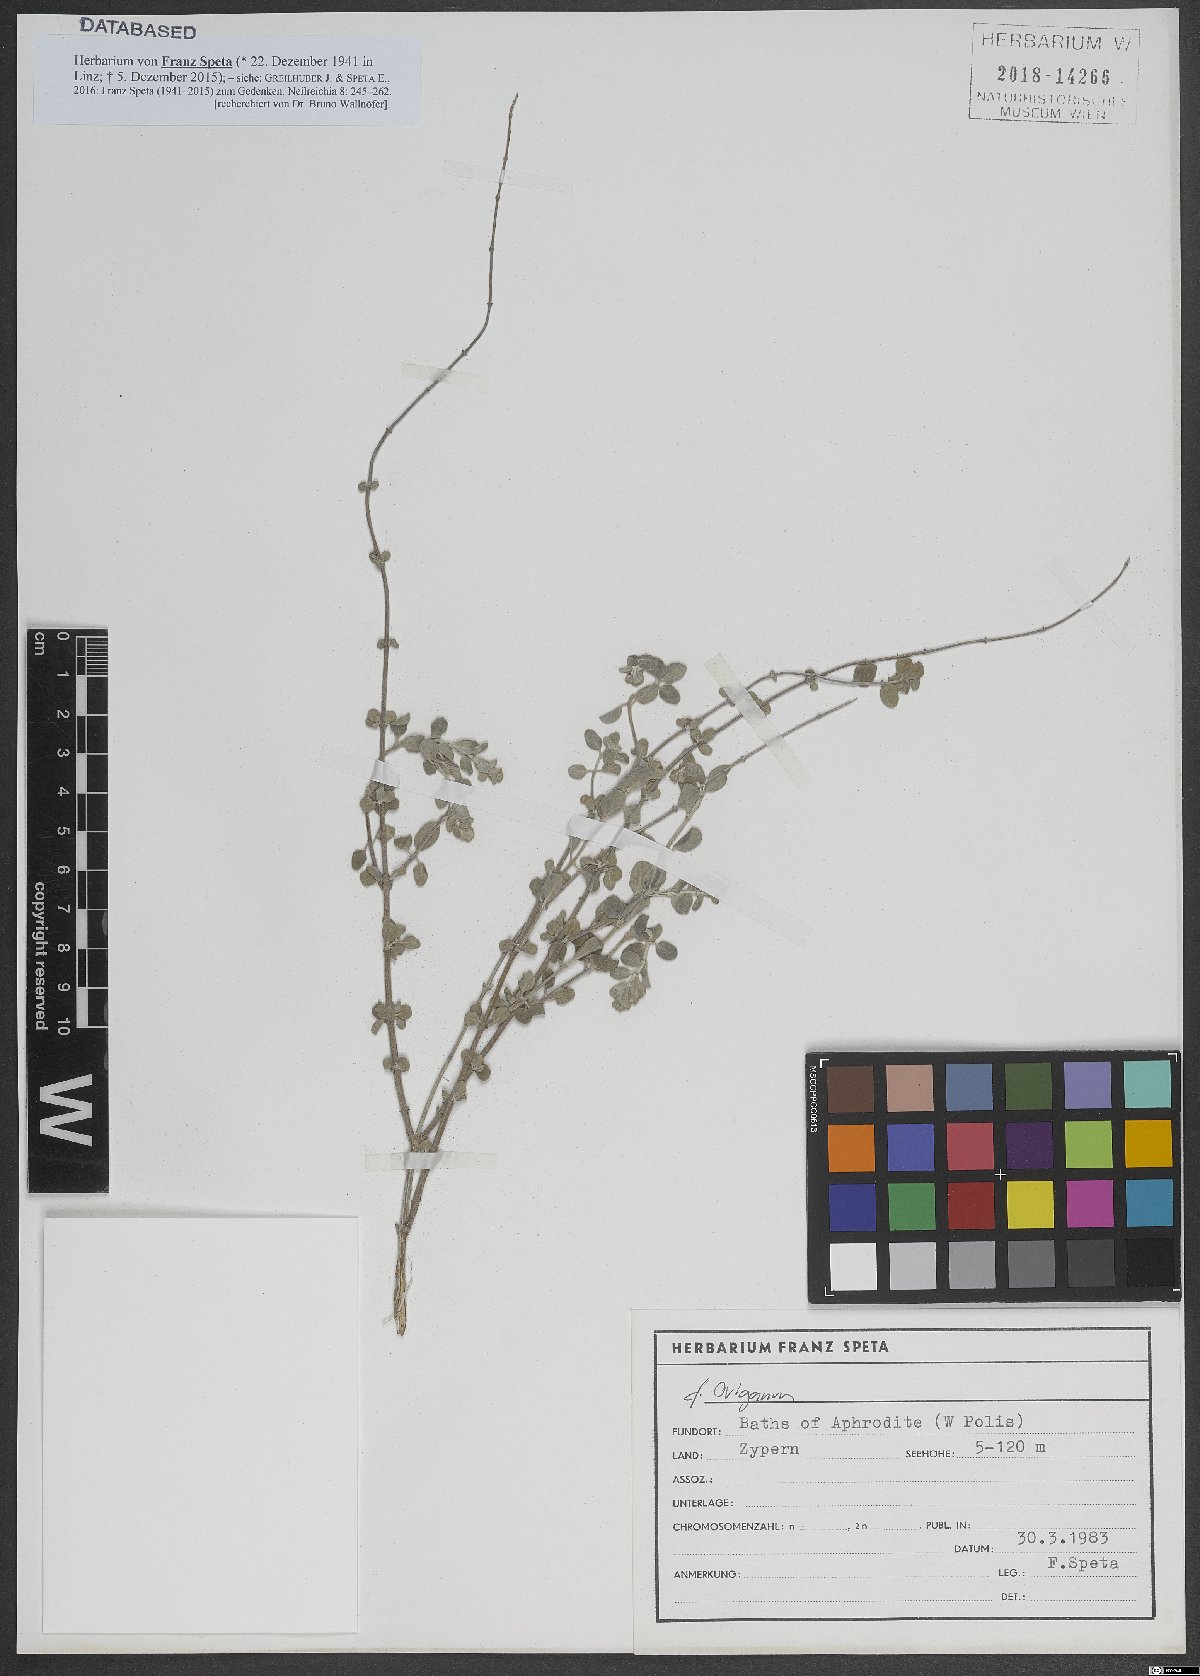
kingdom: Plantae
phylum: Tracheophyta
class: Magnoliopsida
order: Lamiales
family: Lamiaceae
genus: Origanum
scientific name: Origanum
